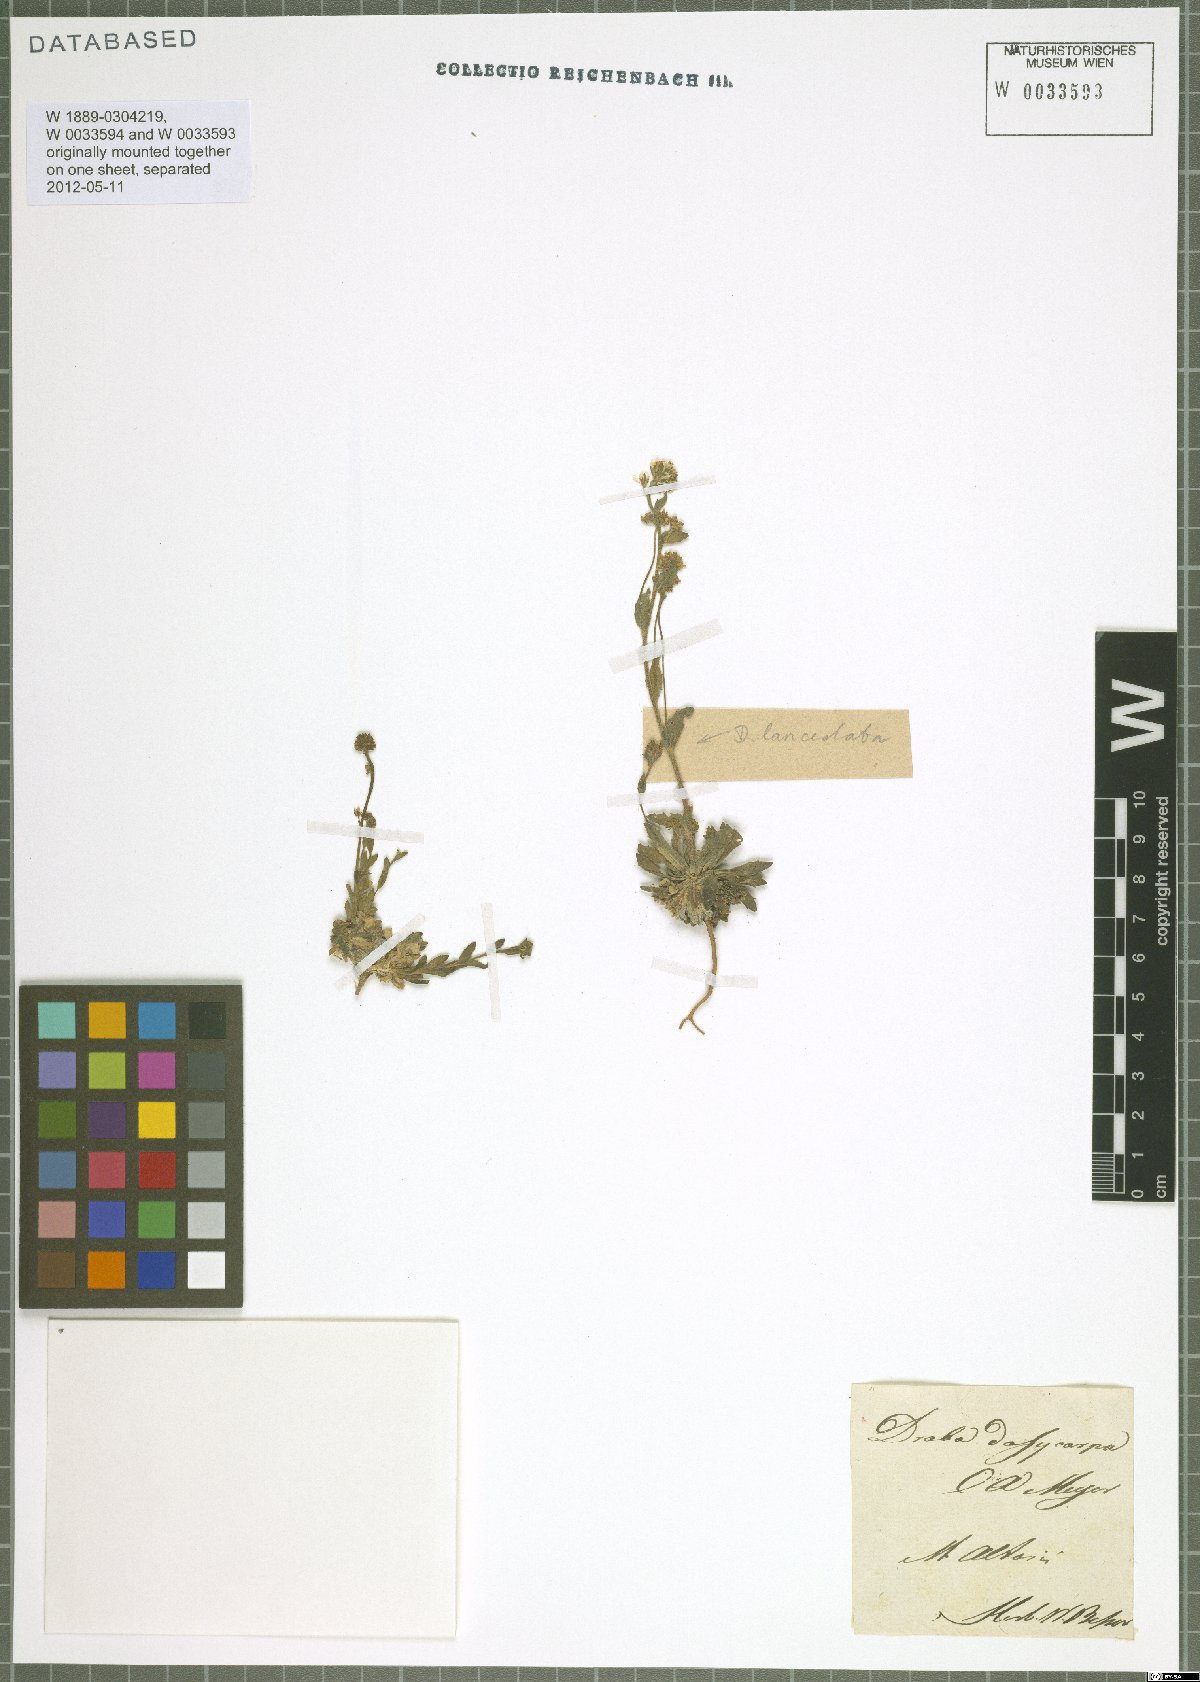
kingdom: Plantae
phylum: Tracheophyta
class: Magnoliopsida
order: Brassicales
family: Brassicaceae
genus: Draba
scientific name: Draba lanceolata
